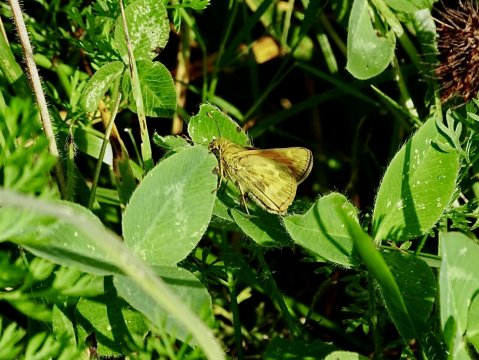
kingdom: Animalia
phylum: Arthropoda
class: Insecta
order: Lepidoptera
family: Hesperiidae
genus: Atalopedes
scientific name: Atalopedes campestris
